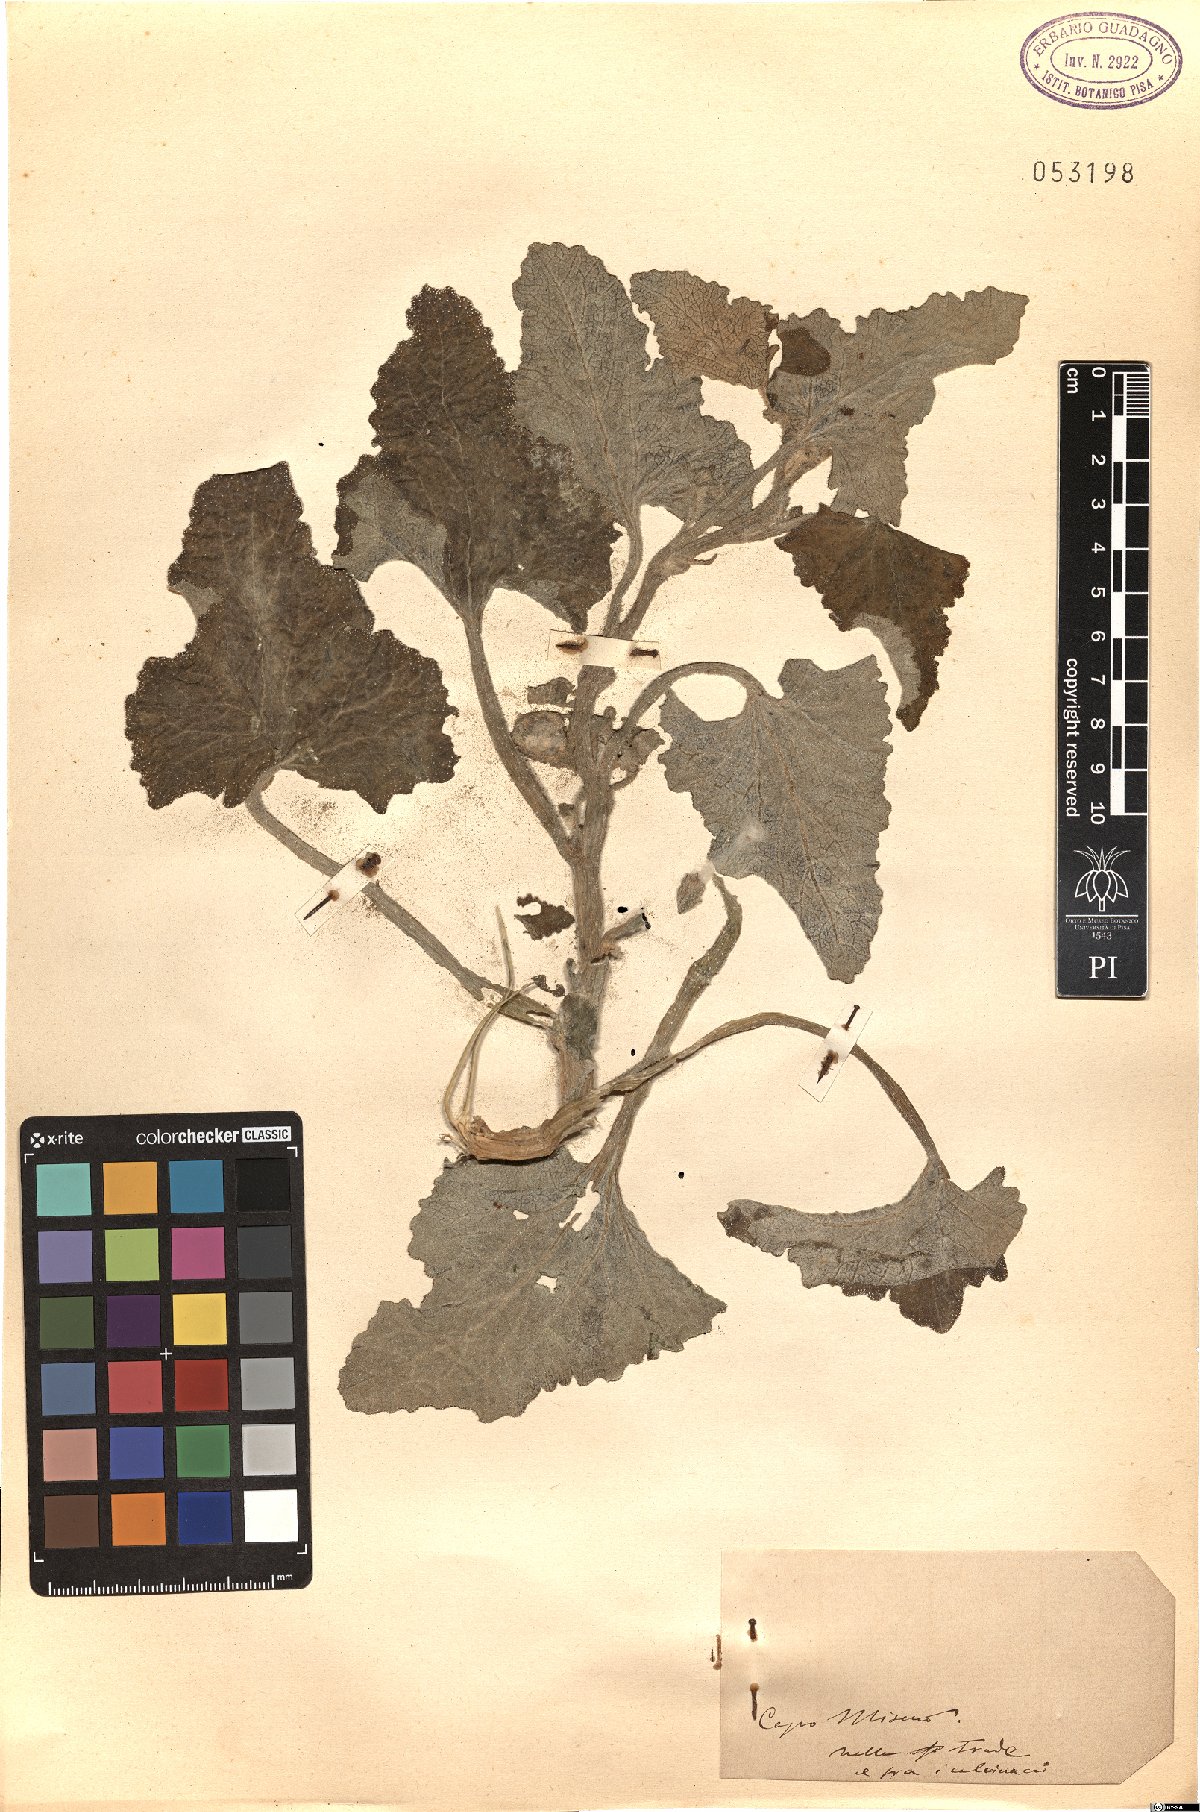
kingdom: Plantae
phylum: Tracheophyta
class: Magnoliopsida
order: Cucurbitales
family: Cucurbitaceae
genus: Ecballium
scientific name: Ecballium
